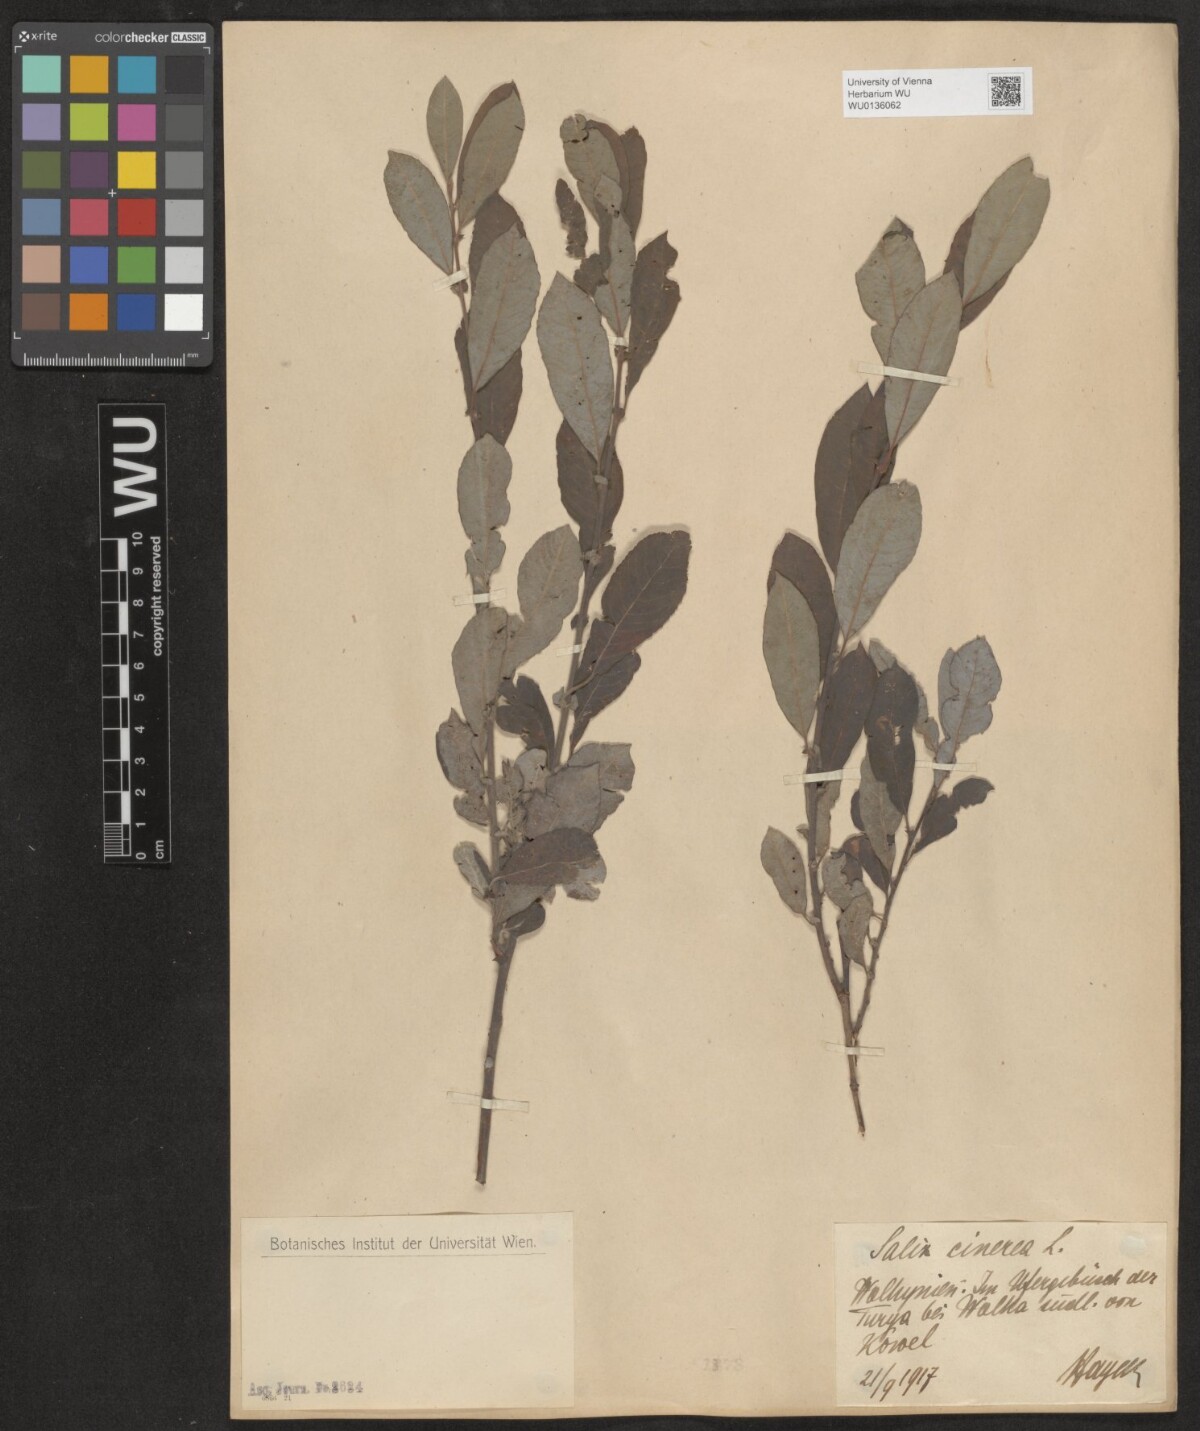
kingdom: Plantae
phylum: Tracheophyta
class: Magnoliopsida
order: Malpighiales
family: Salicaceae
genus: Salix
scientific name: Salix cinerea
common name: Common sallow
